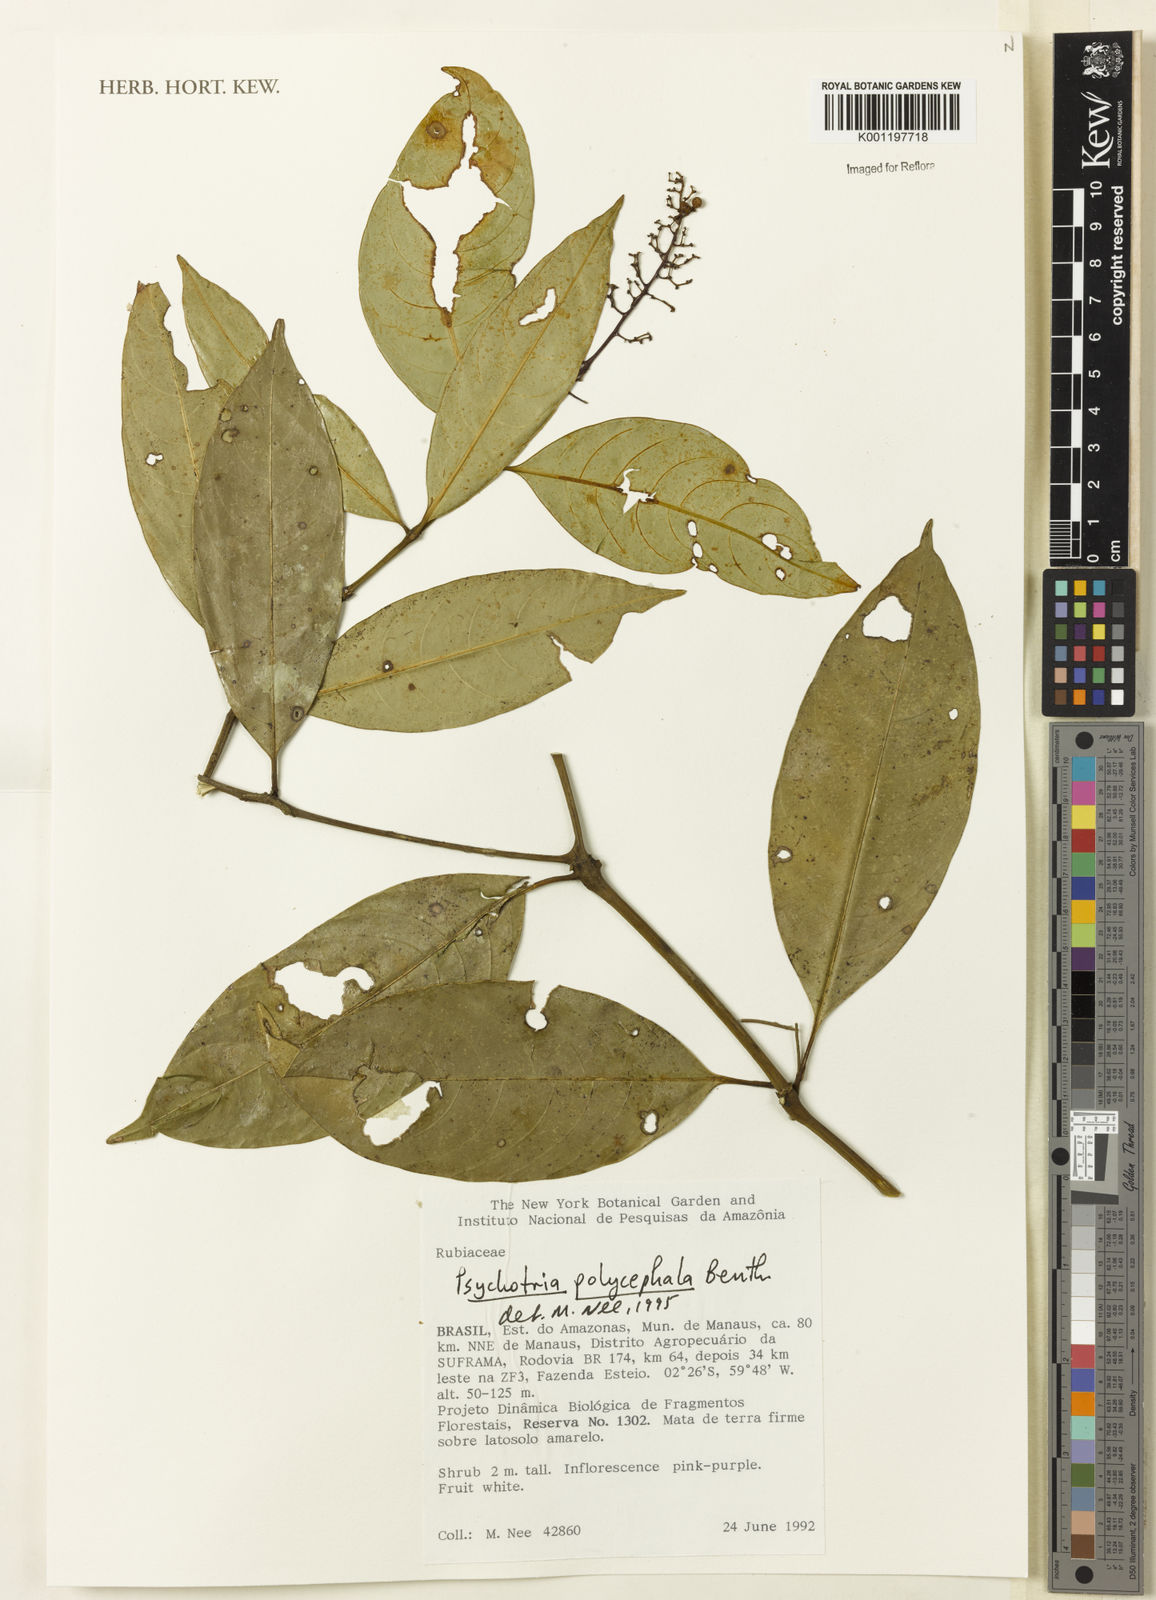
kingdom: Plantae
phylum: Tracheophyta
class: Magnoliopsida
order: Gentianales
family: Rubiaceae
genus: Palicourea
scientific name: Palicourea polycephala
